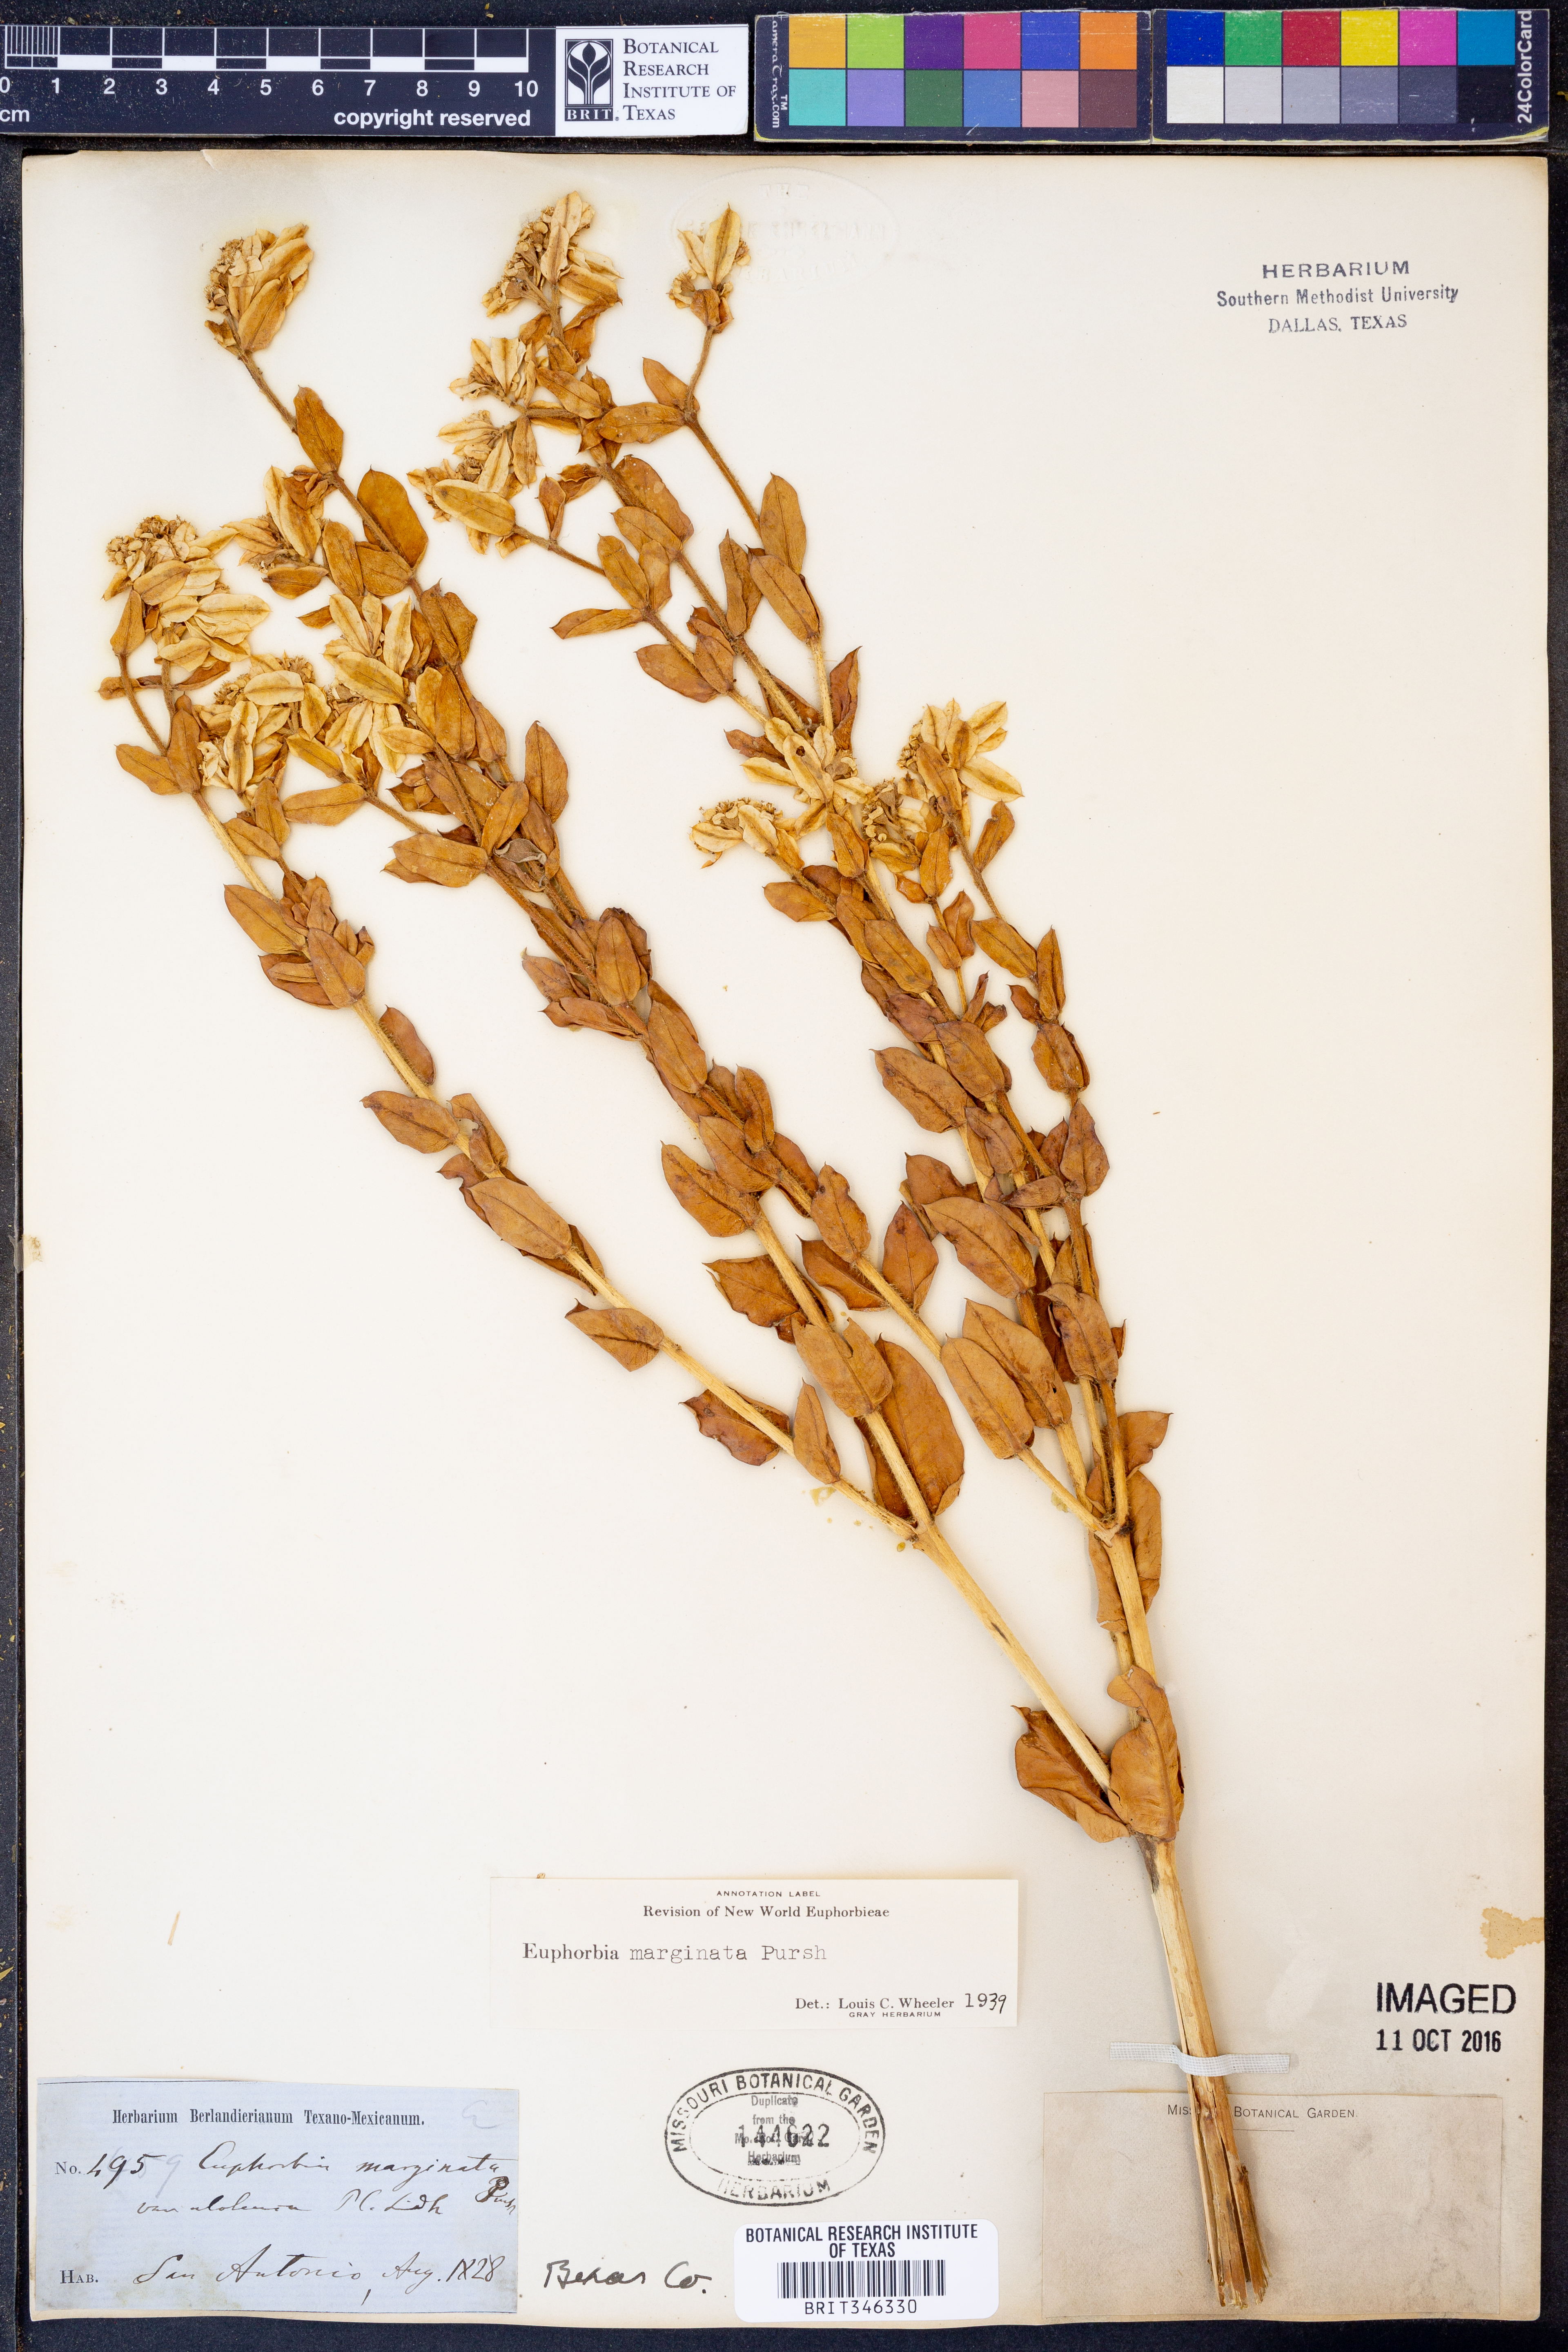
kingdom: Plantae
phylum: Tracheophyta
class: Magnoliopsida
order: Malpighiales
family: Euphorbiaceae
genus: Euphorbia
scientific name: Euphorbia marginata
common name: Ghostweed
